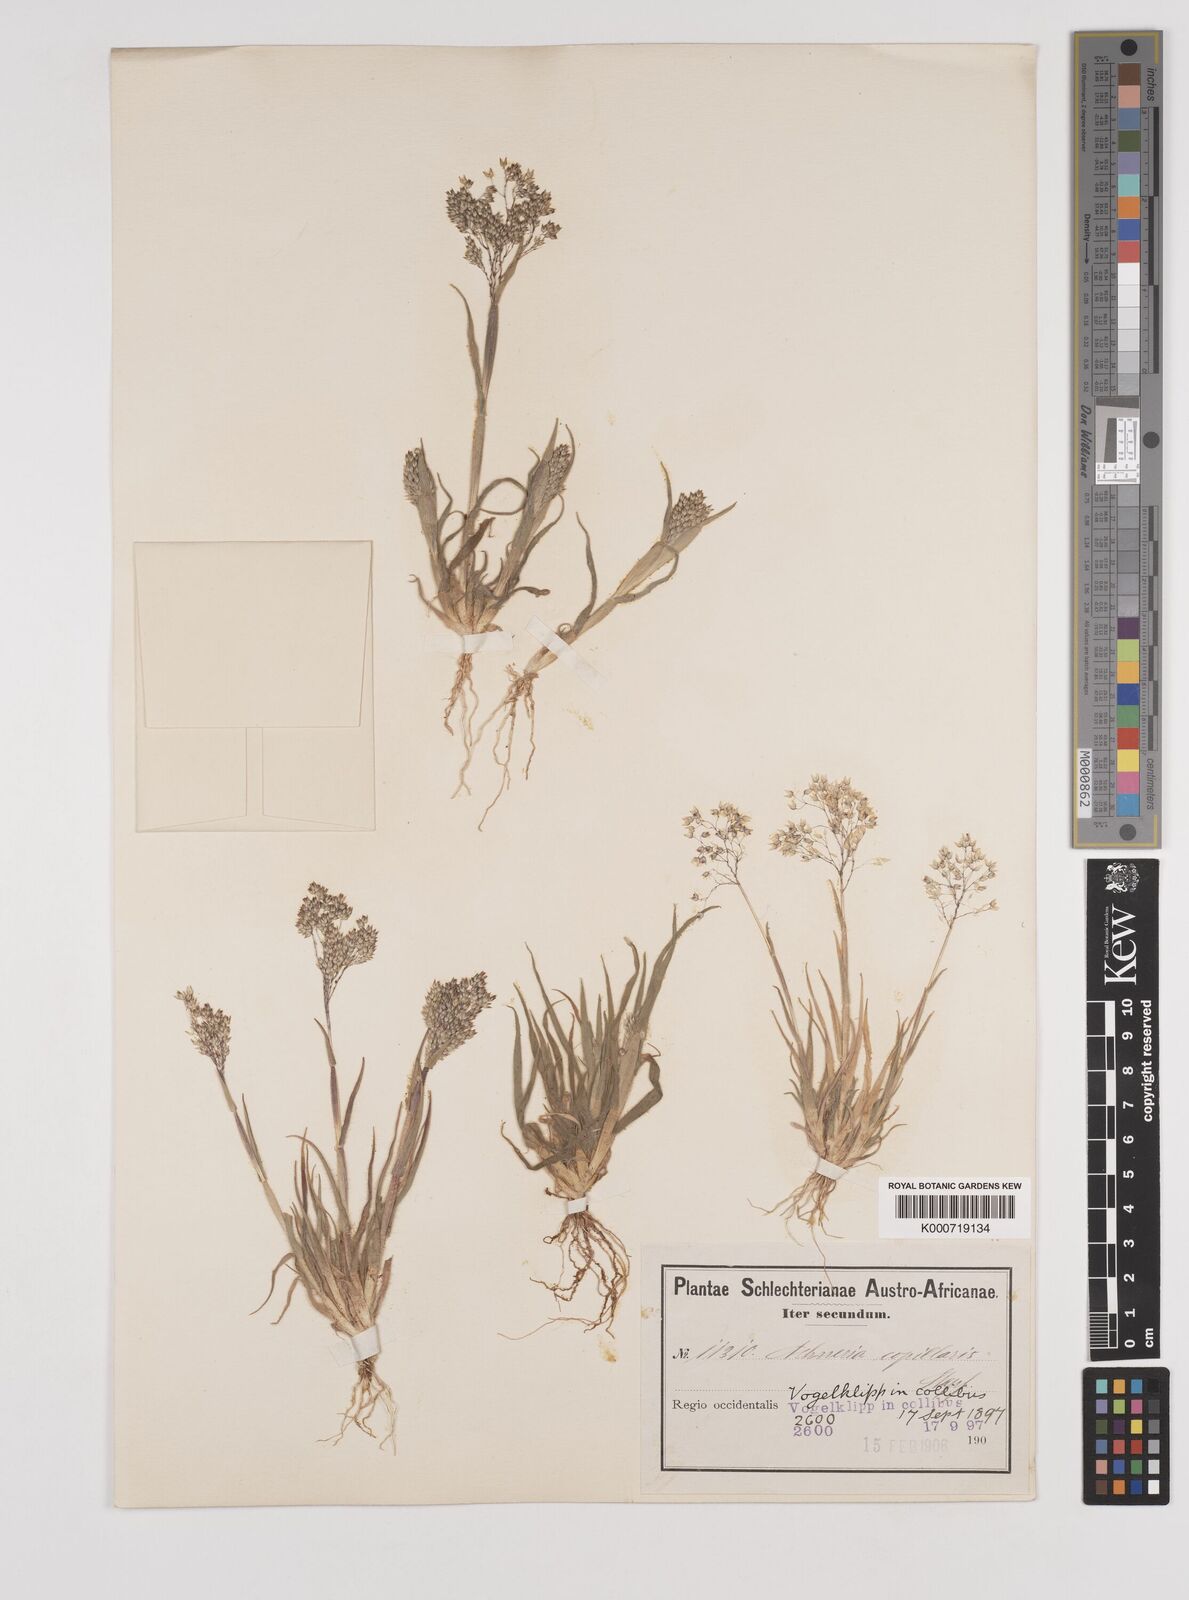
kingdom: Plantae
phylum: Tracheophyta
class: Liliopsida
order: Poales
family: Poaceae
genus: Pentameris
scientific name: Pentameris capillaris
